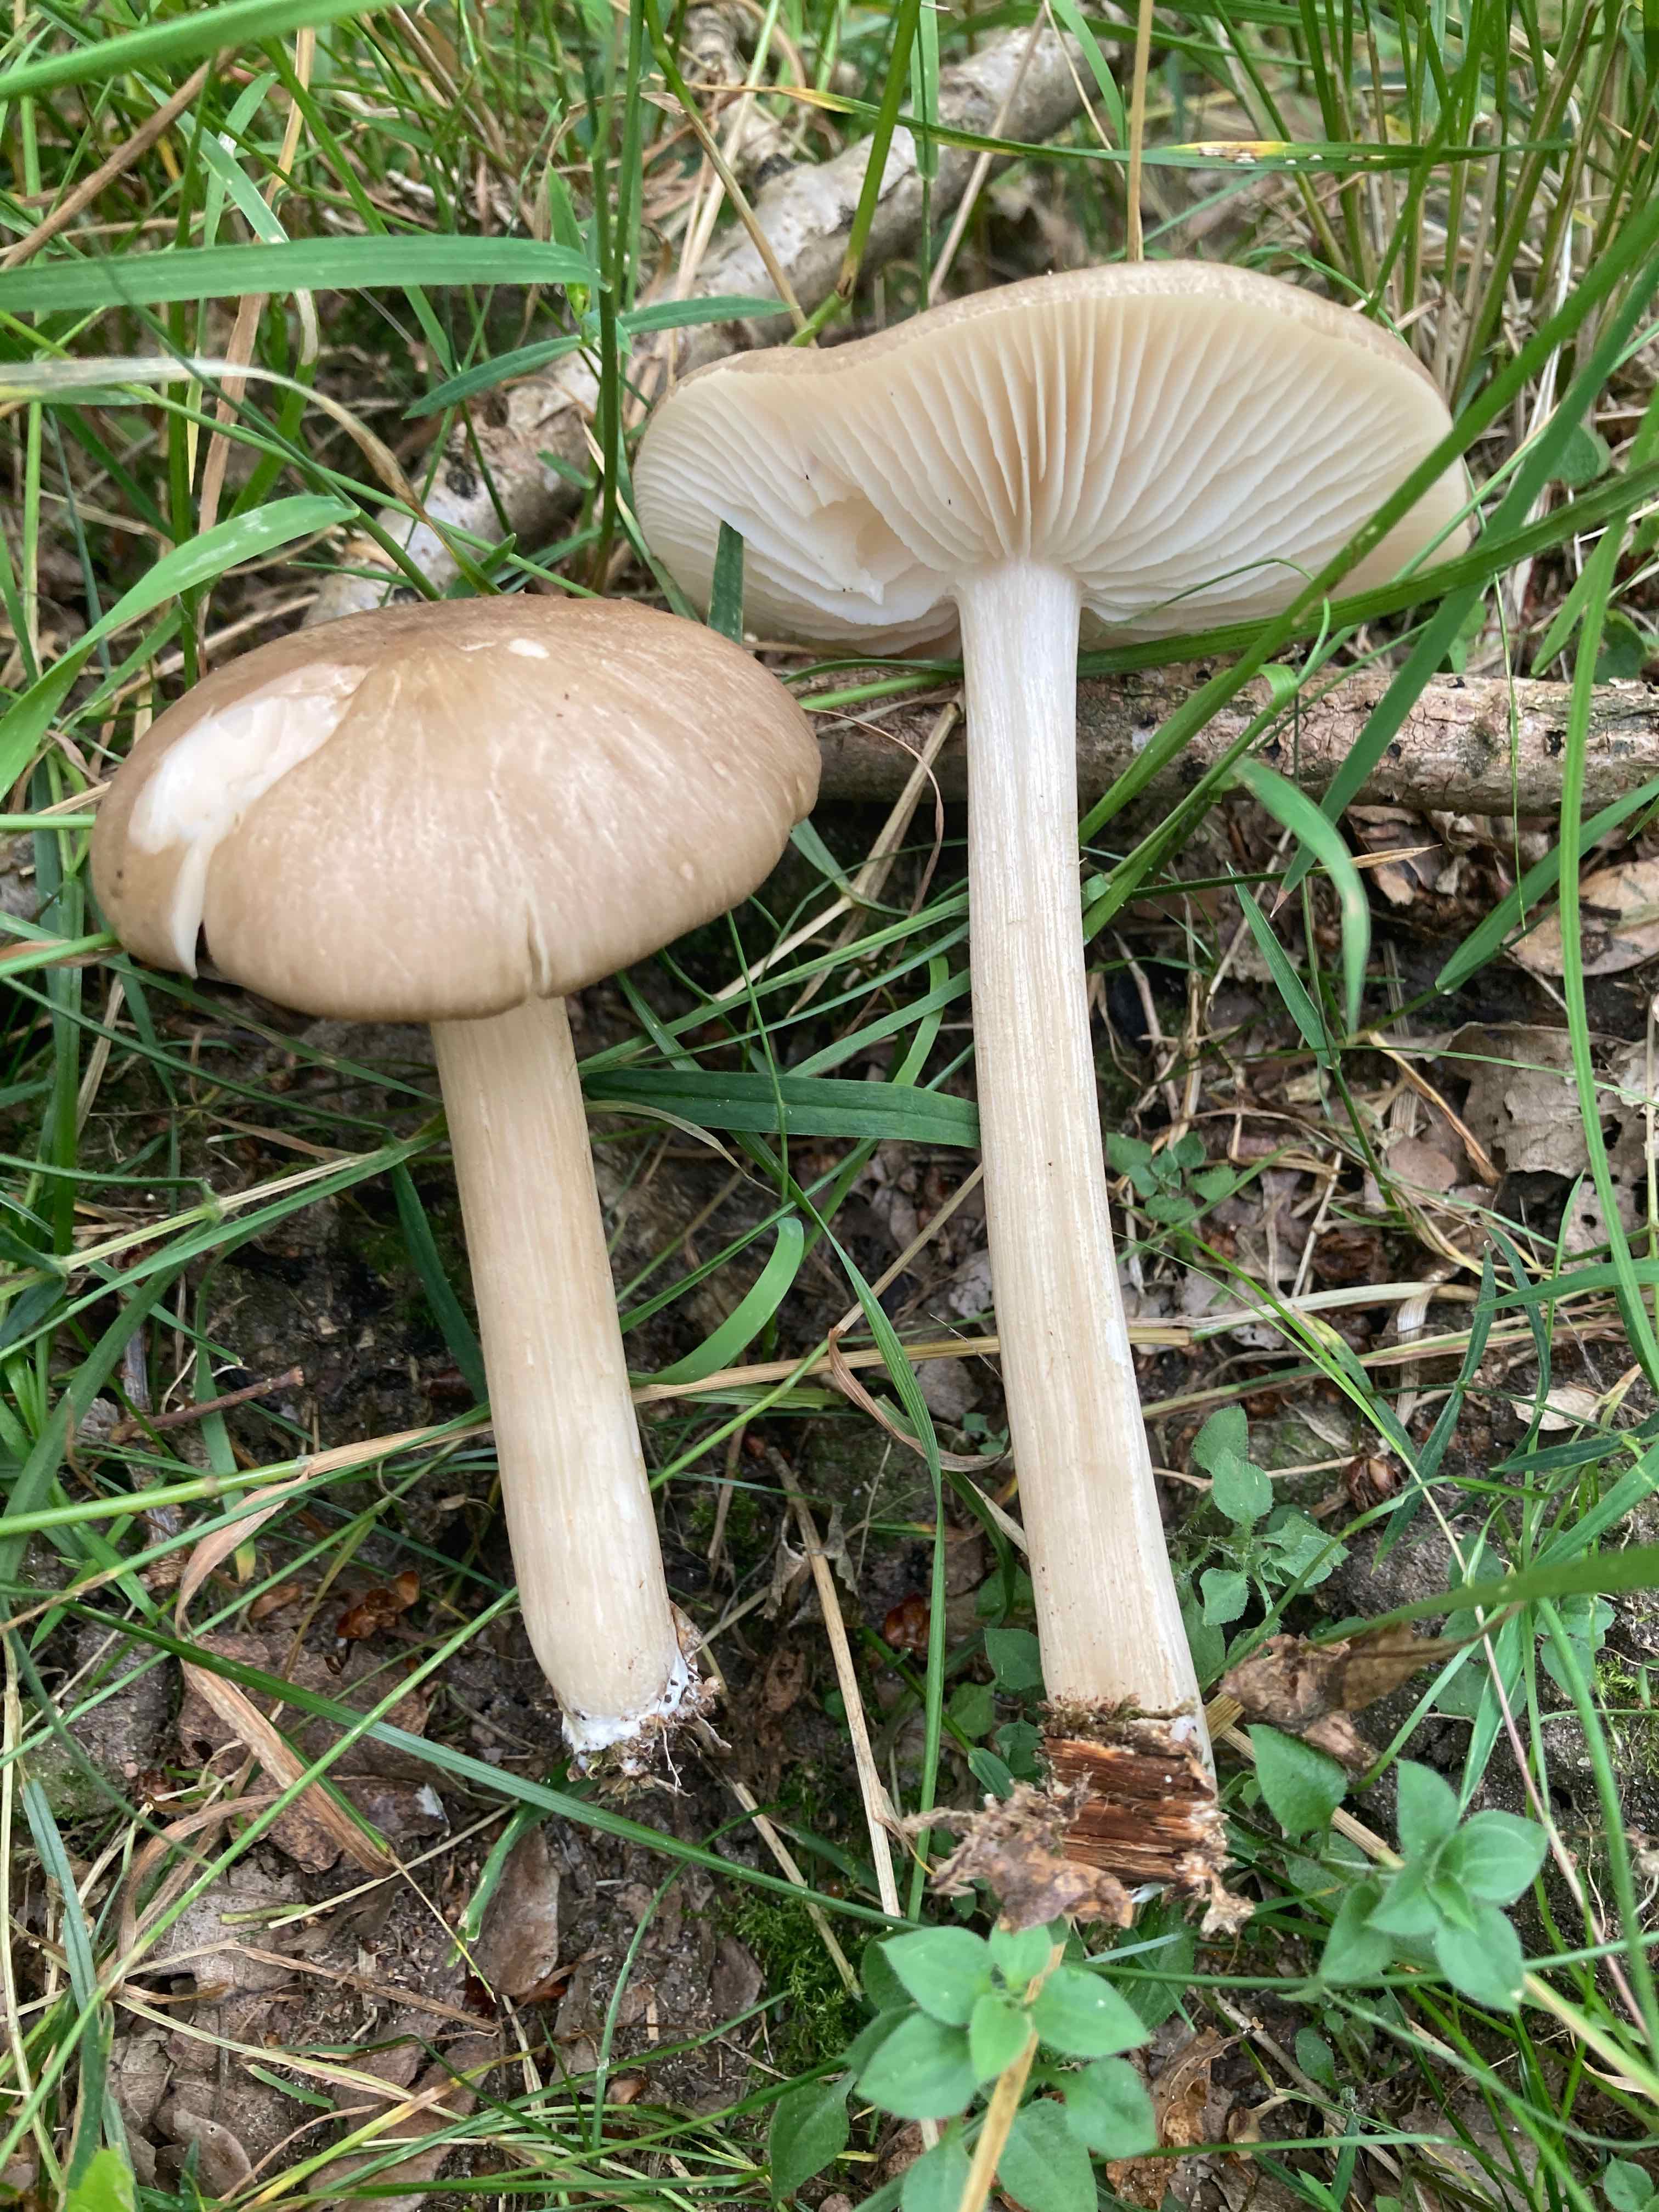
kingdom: Fungi
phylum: Basidiomycota
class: Agaricomycetes
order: Agaricales
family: Tricholomataceae
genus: Megacollybia
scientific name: Megacollybia platyphylla
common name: bredbladet væbnerhat
